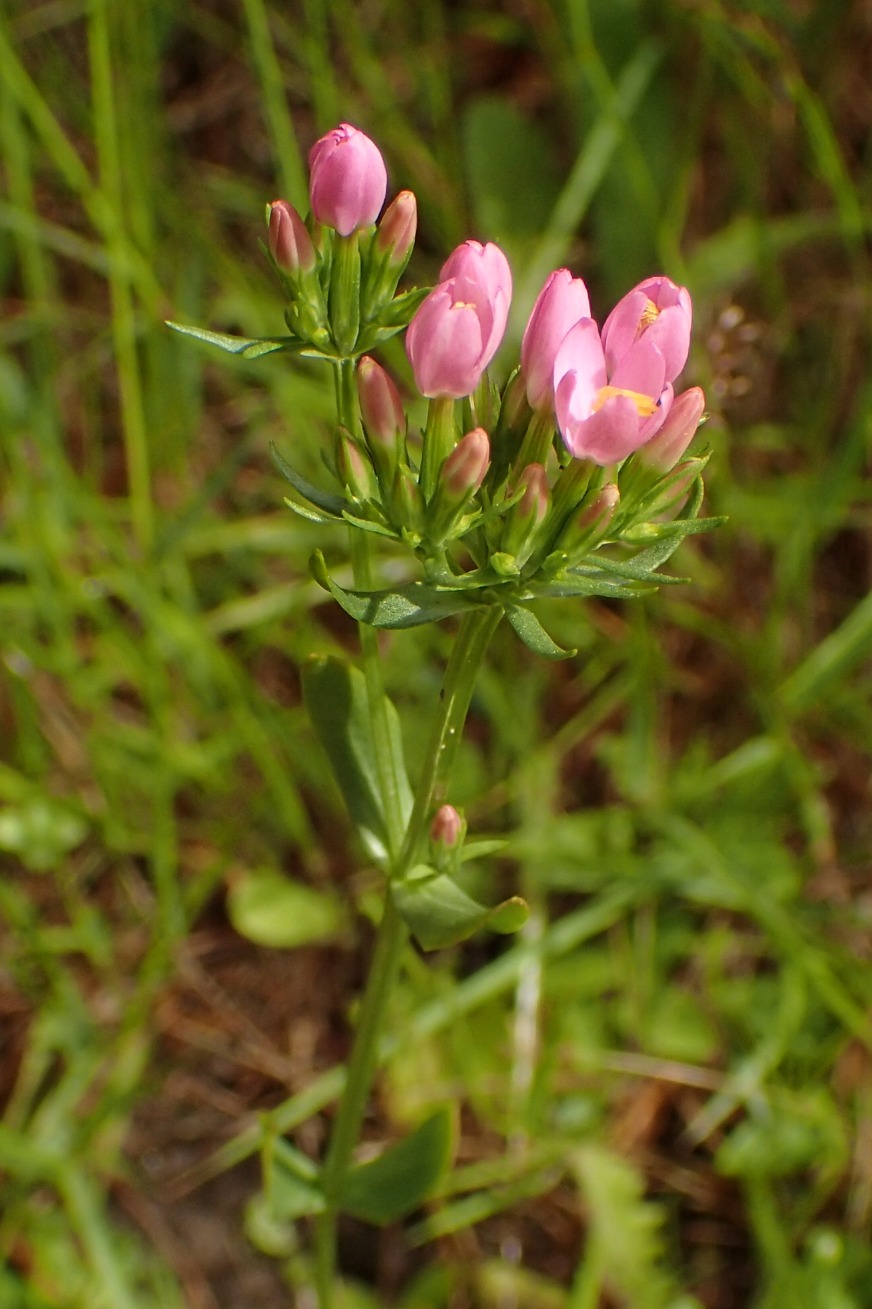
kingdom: Plantae
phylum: Tracheophyta
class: Magnoliopsida
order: Gentianales
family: Gentianaceae
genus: Centaurium
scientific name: Centaurium erythraea
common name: Mark-tusindgylden
